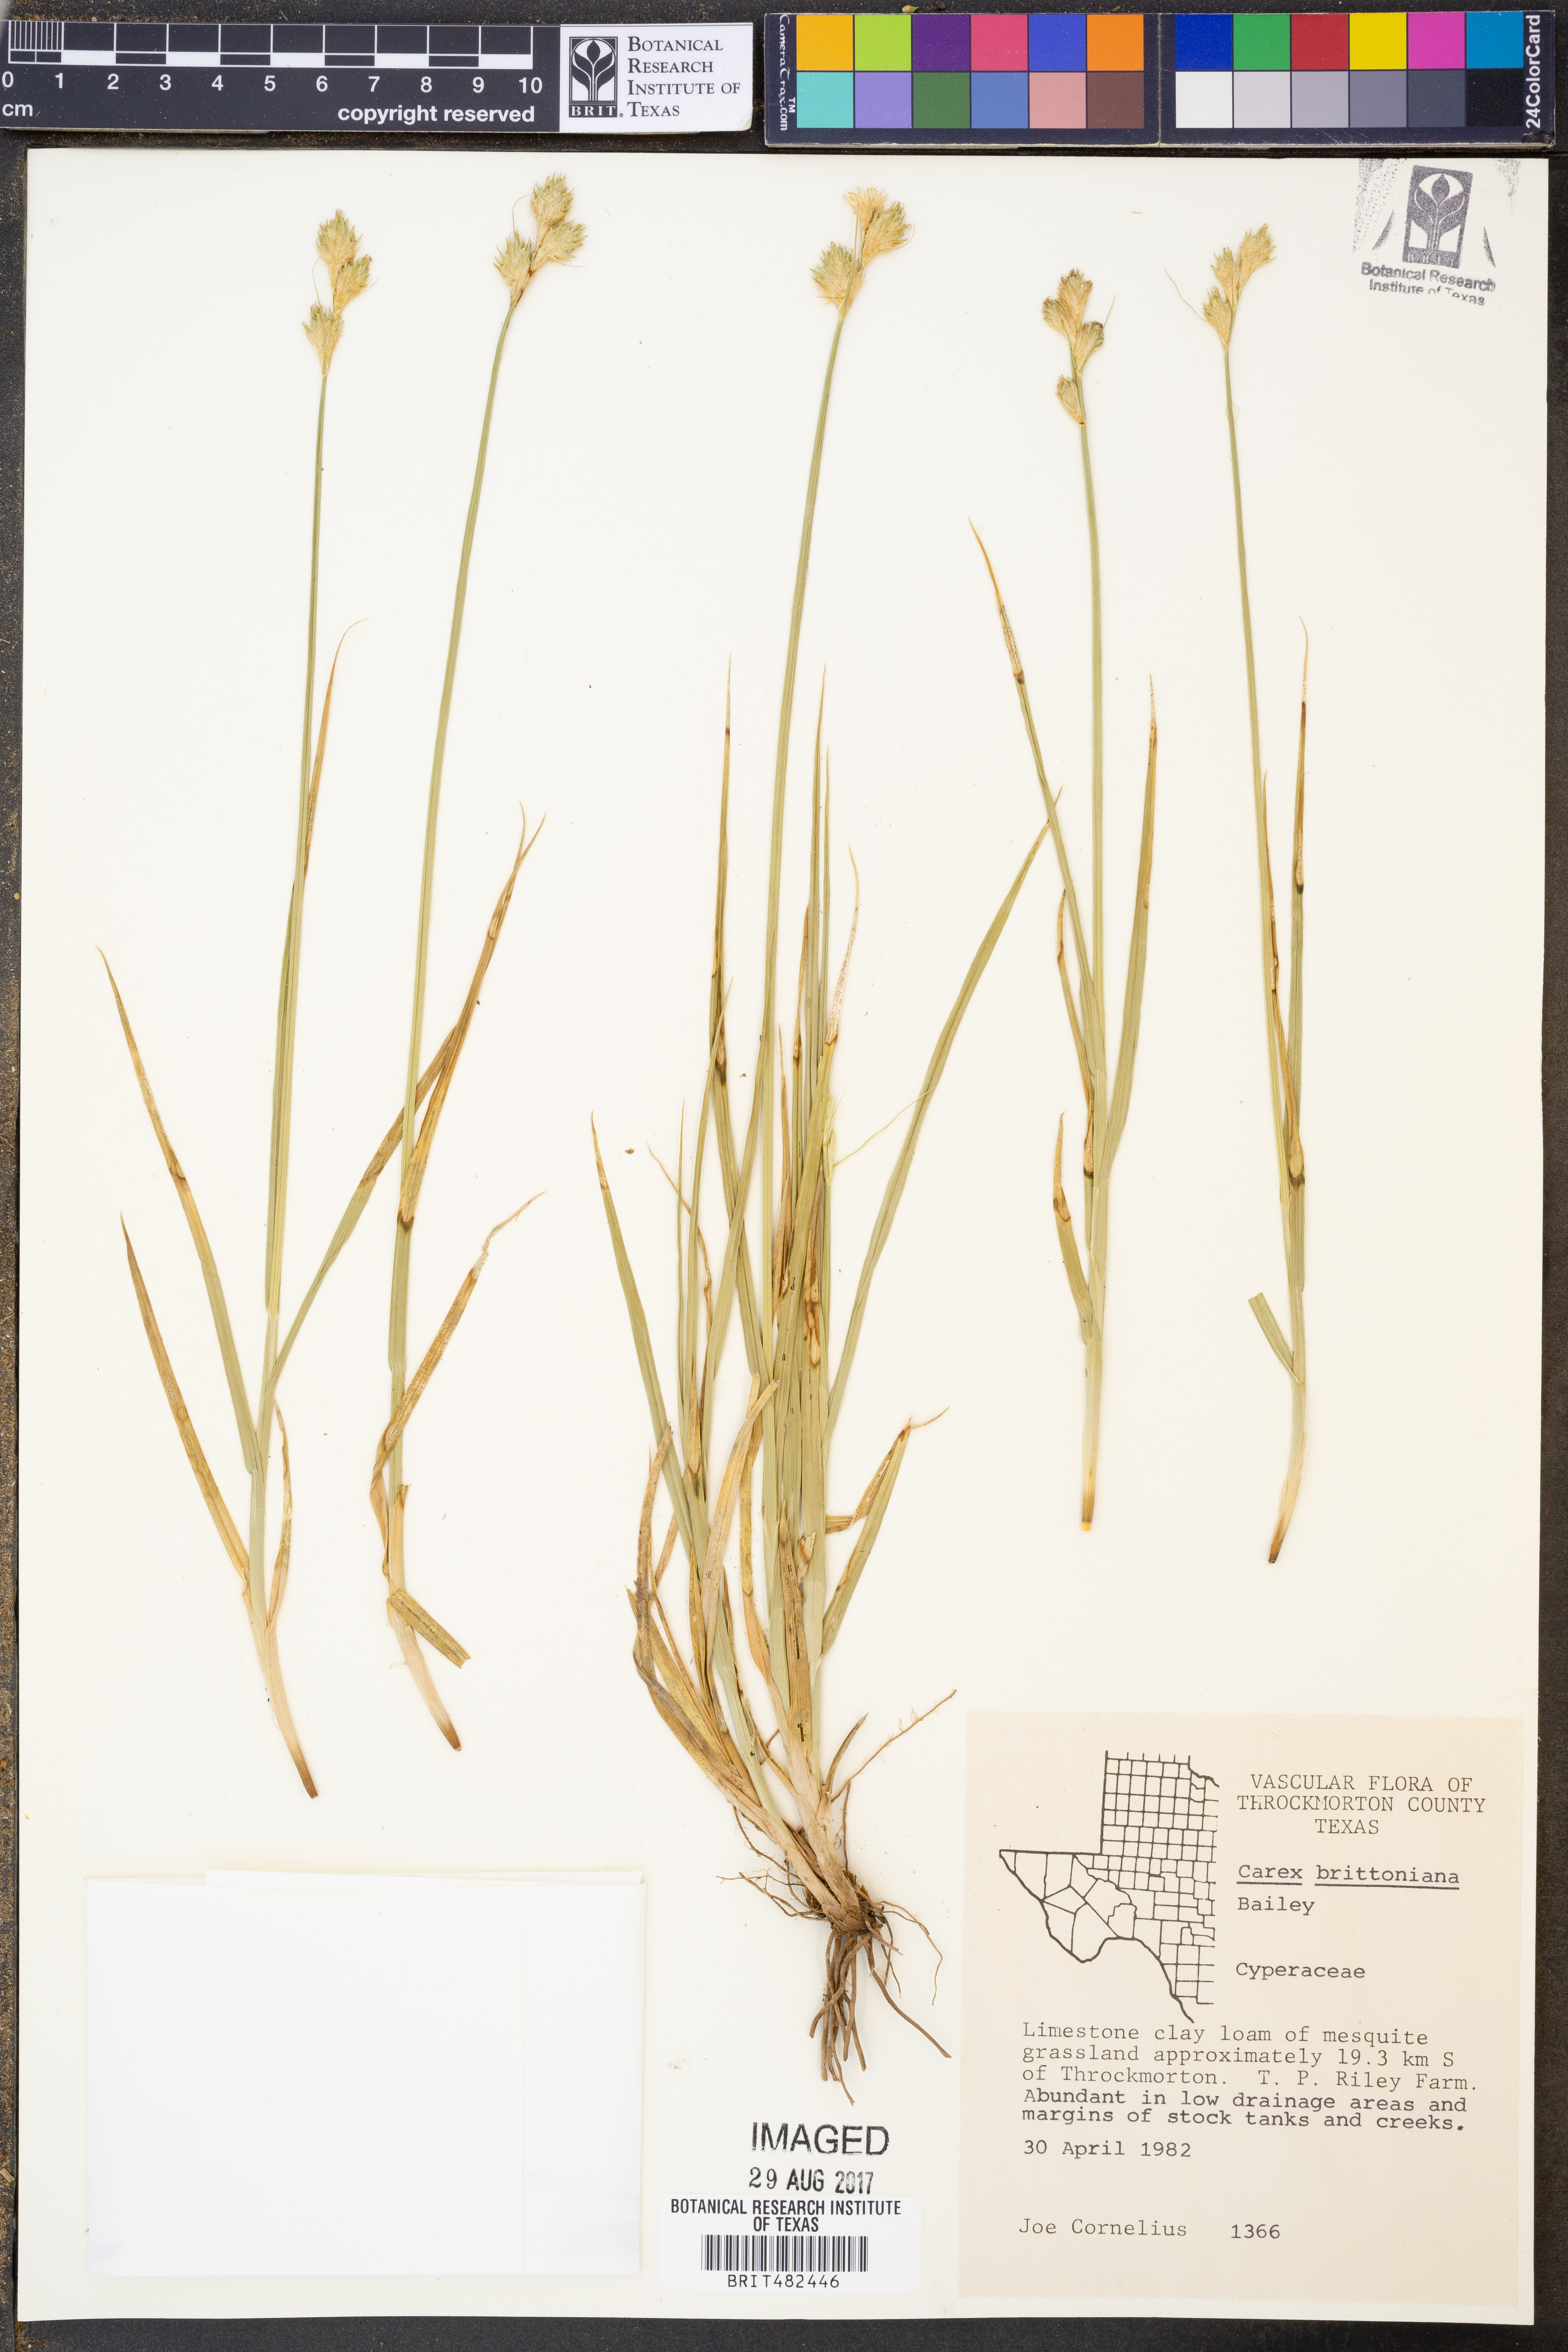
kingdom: Plantae
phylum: Tracheophyta
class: Liliopsida
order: Poales
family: Cyperaceae
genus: Carex
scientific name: Carex tetrastachya
